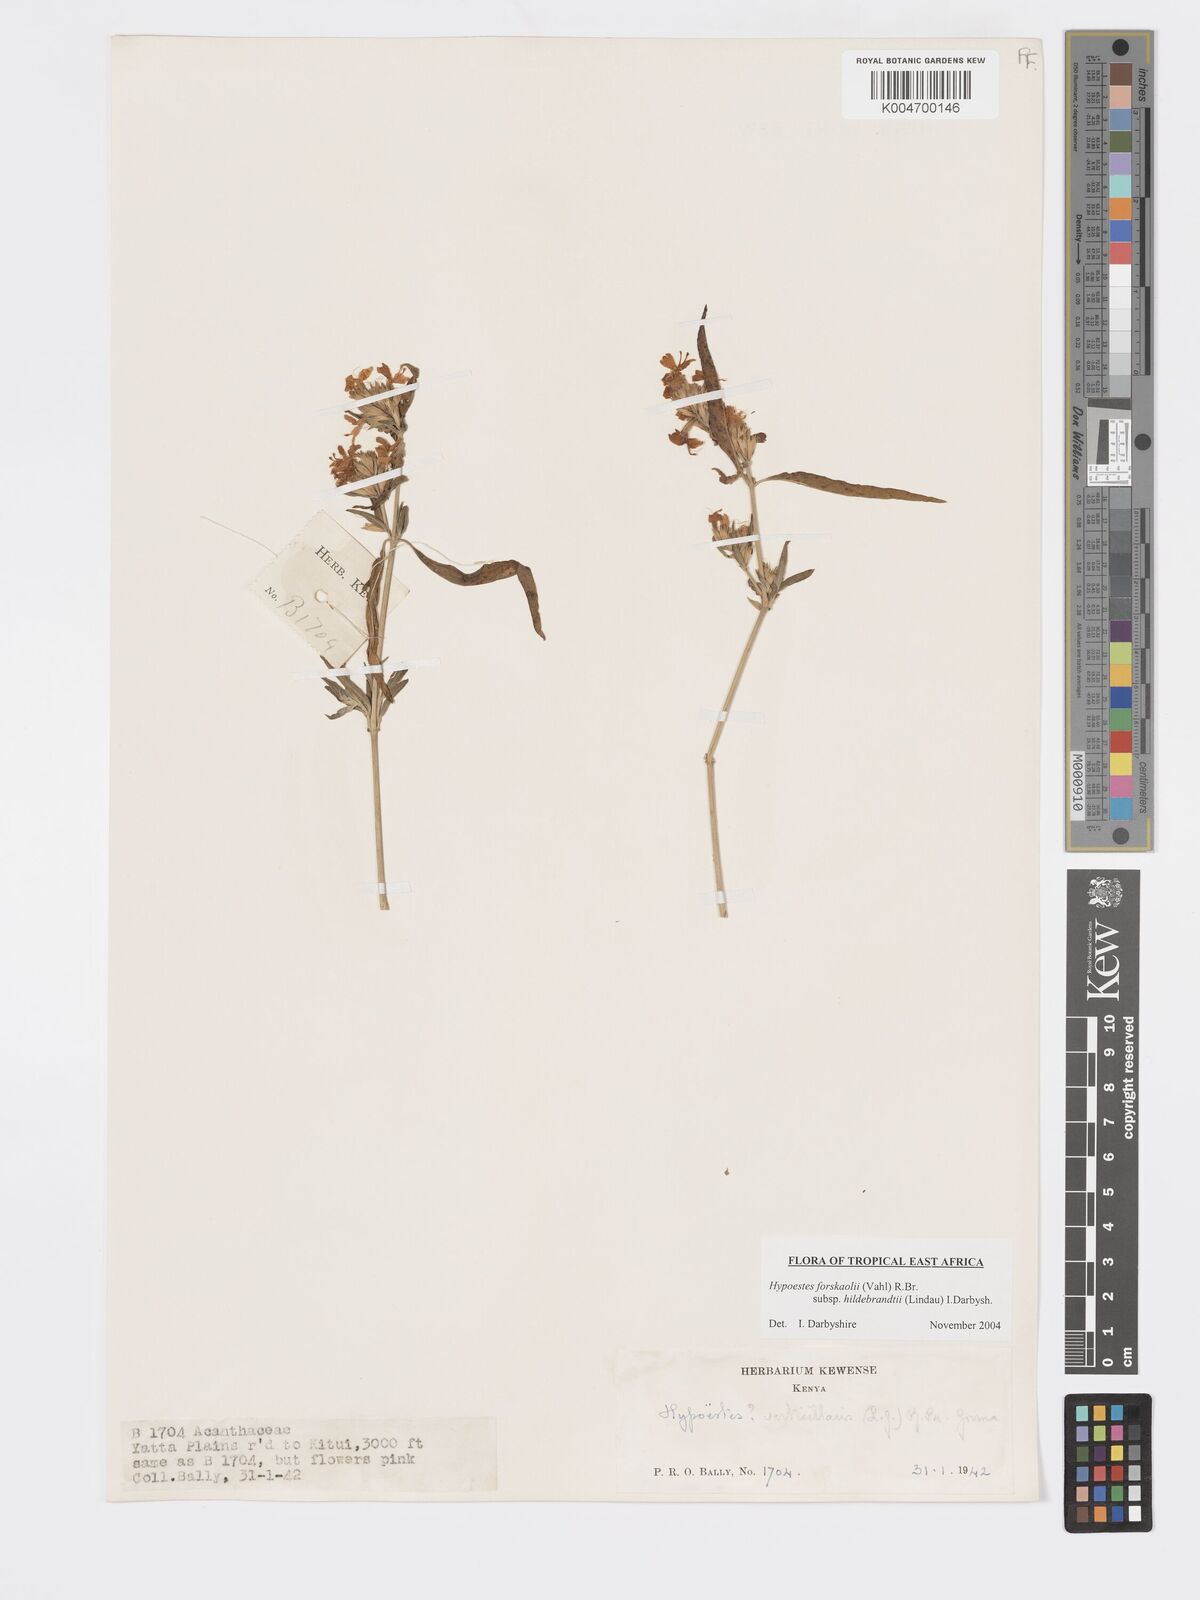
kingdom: Plantae
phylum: Tracheophyta
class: Magnoliopsida
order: Lamiales
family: Acanthaceae
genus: Hypoestes
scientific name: Hypoestes forskaolii
